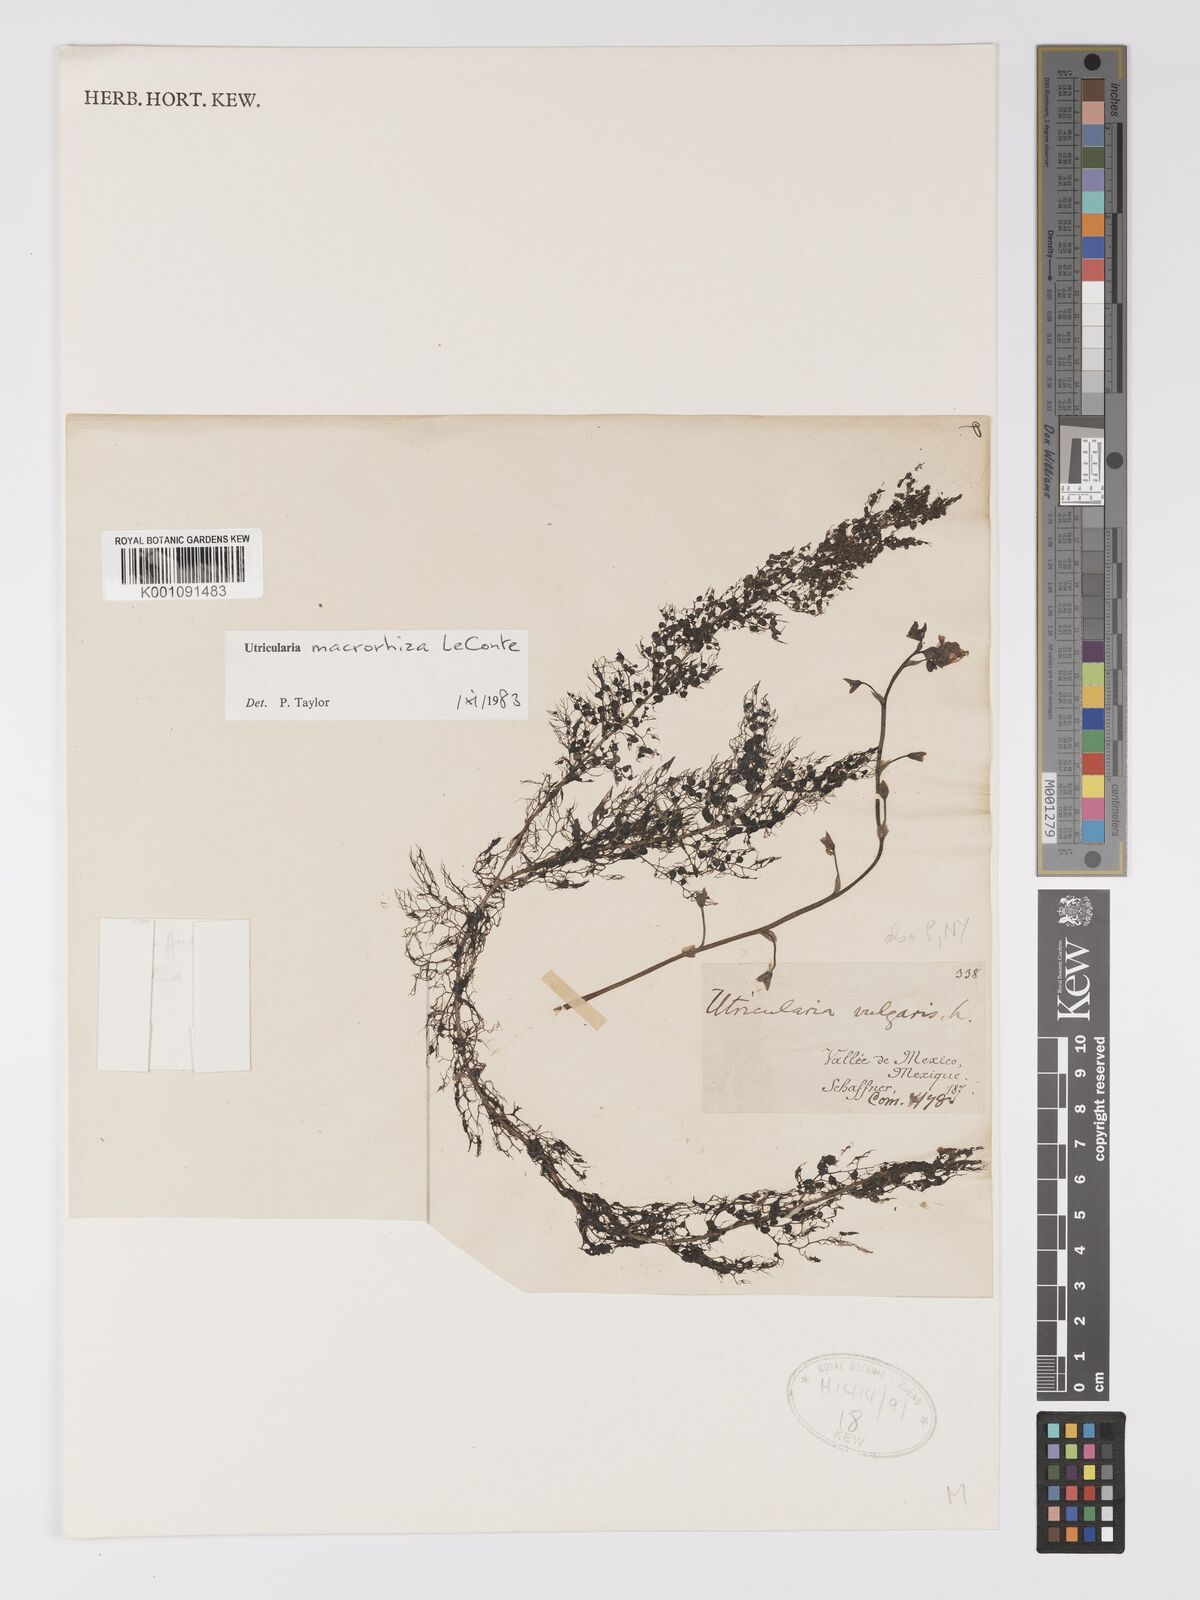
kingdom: Plantae
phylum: Tracheophyta
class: Magnoliopsida
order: Lamiales
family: Lentibulariaceae
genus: Utricularia
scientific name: Utricularia macrorhiza
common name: Common bladderwort
